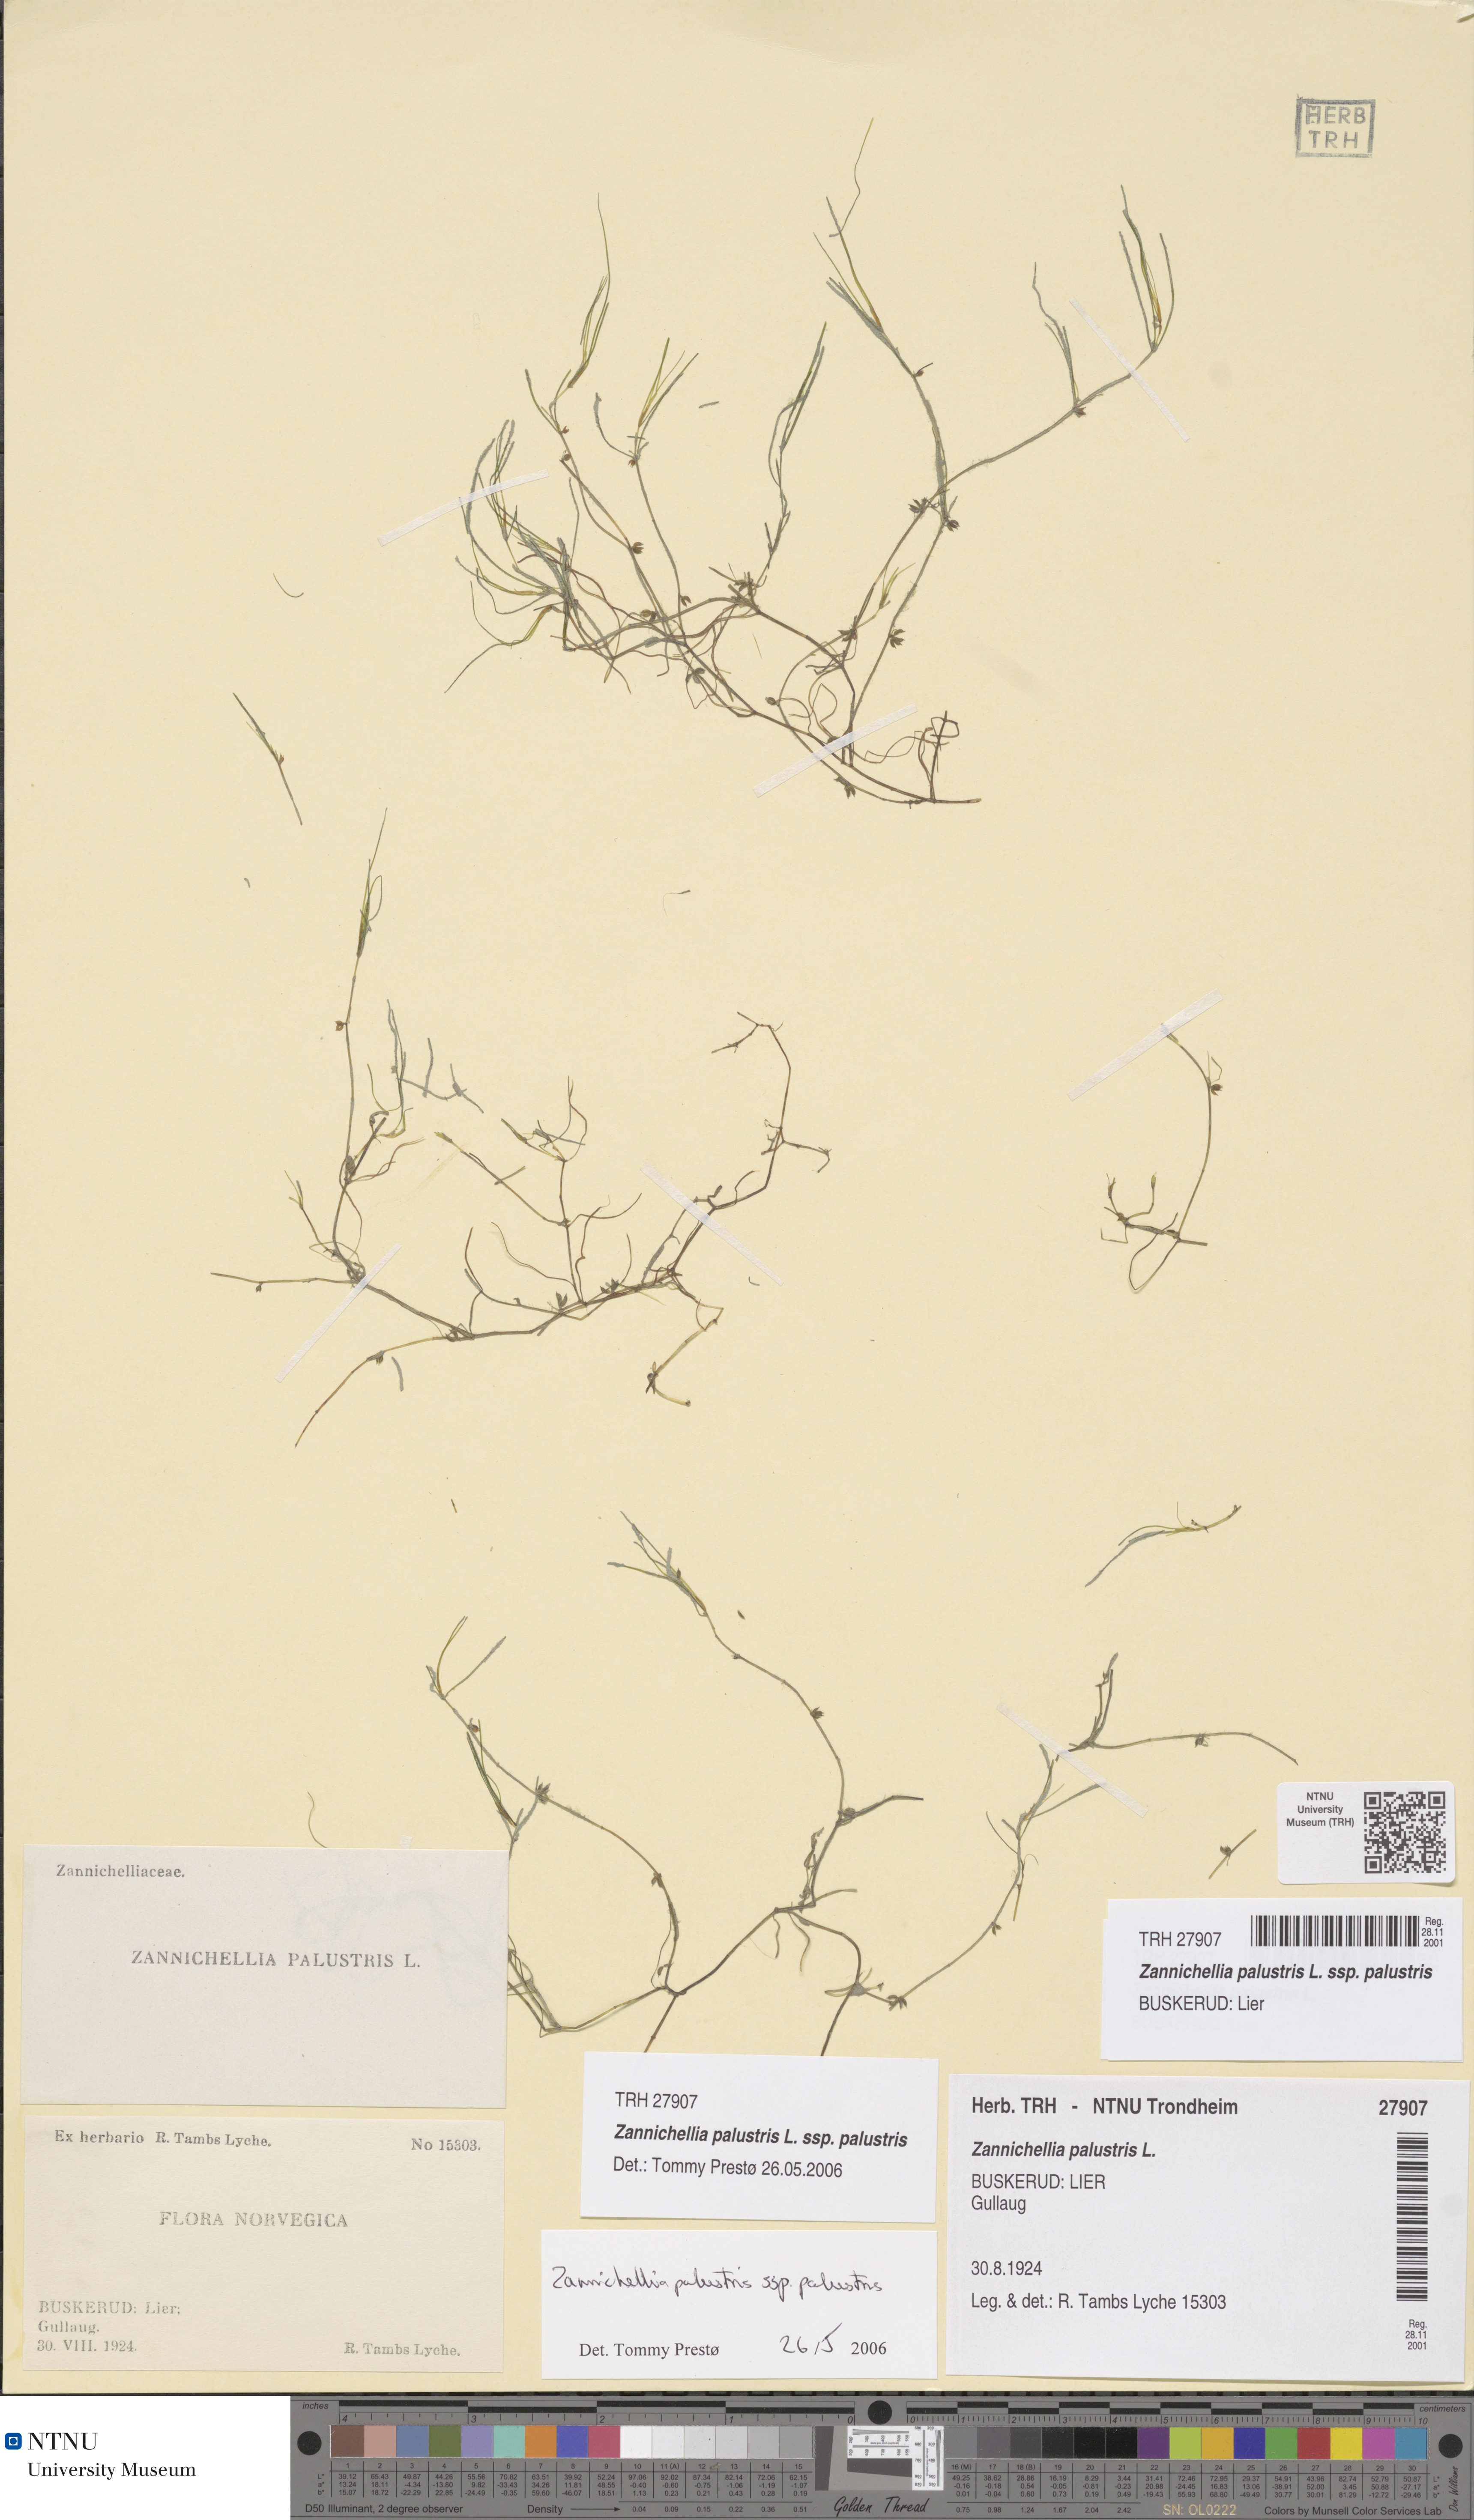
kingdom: Plantae
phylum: Tracheophyta
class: Liliopsida
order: Alismatales
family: Potamogetonaceae
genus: Zannichellia
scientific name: Zannichellia palustris
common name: Horned pondweed
